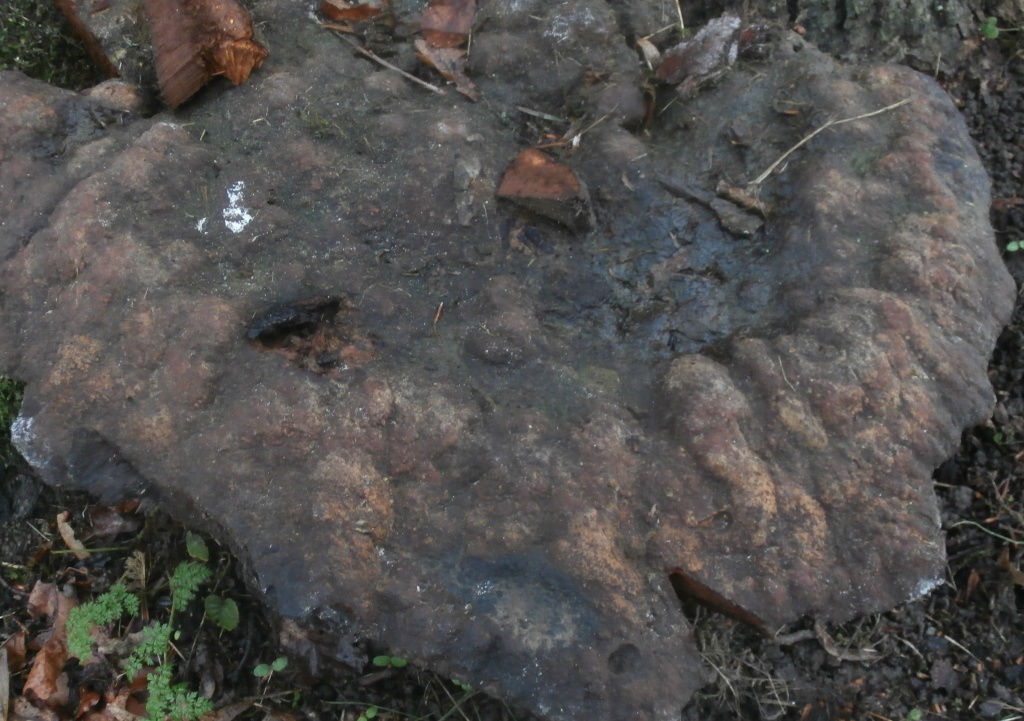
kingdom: Fungi
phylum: Basidiomycota
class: Agaricomycetes
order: Hymenochaetales
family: Hymenochaetaceae
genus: Pseudoinonotus
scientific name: Pseudoinonotus dryadeus
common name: ege-spejlporesvamp
